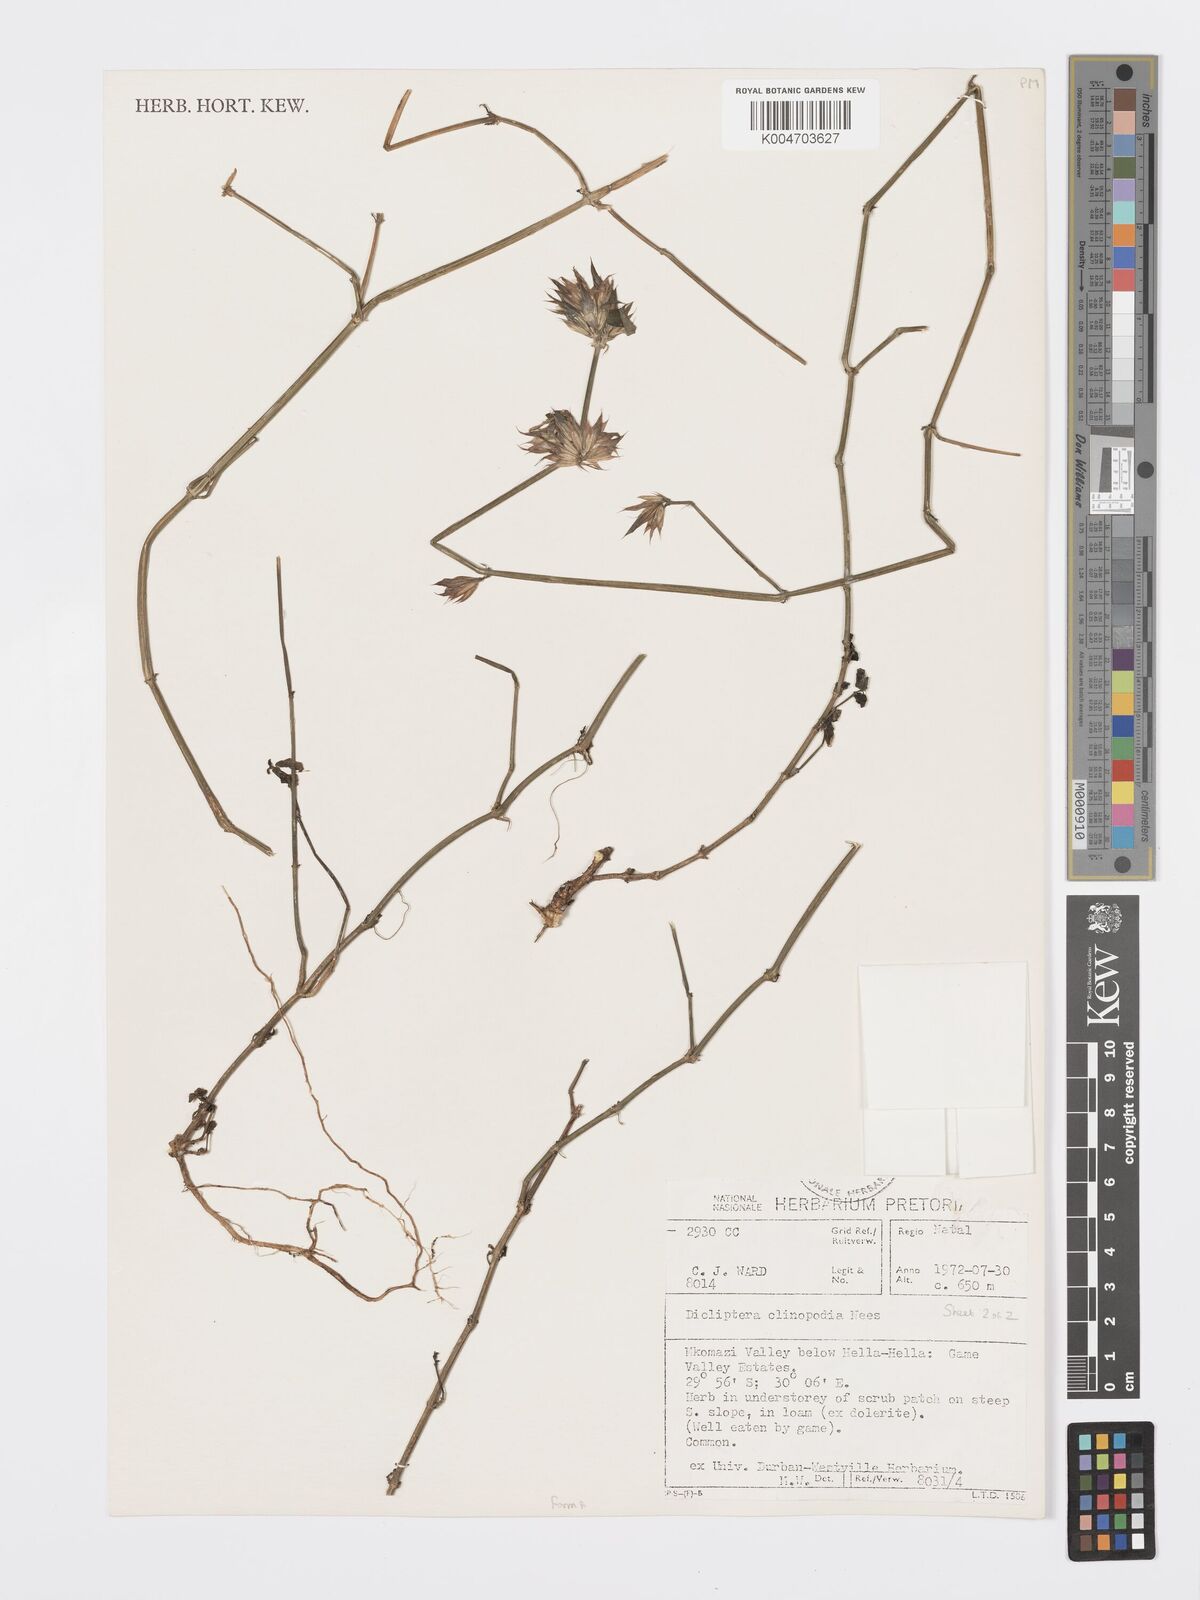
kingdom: Plantae
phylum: Tracheophyta
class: Magnoliopsida
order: Lamiales
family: Acanthaceae
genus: Dicliptera
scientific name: Dicliptera clinopodia
